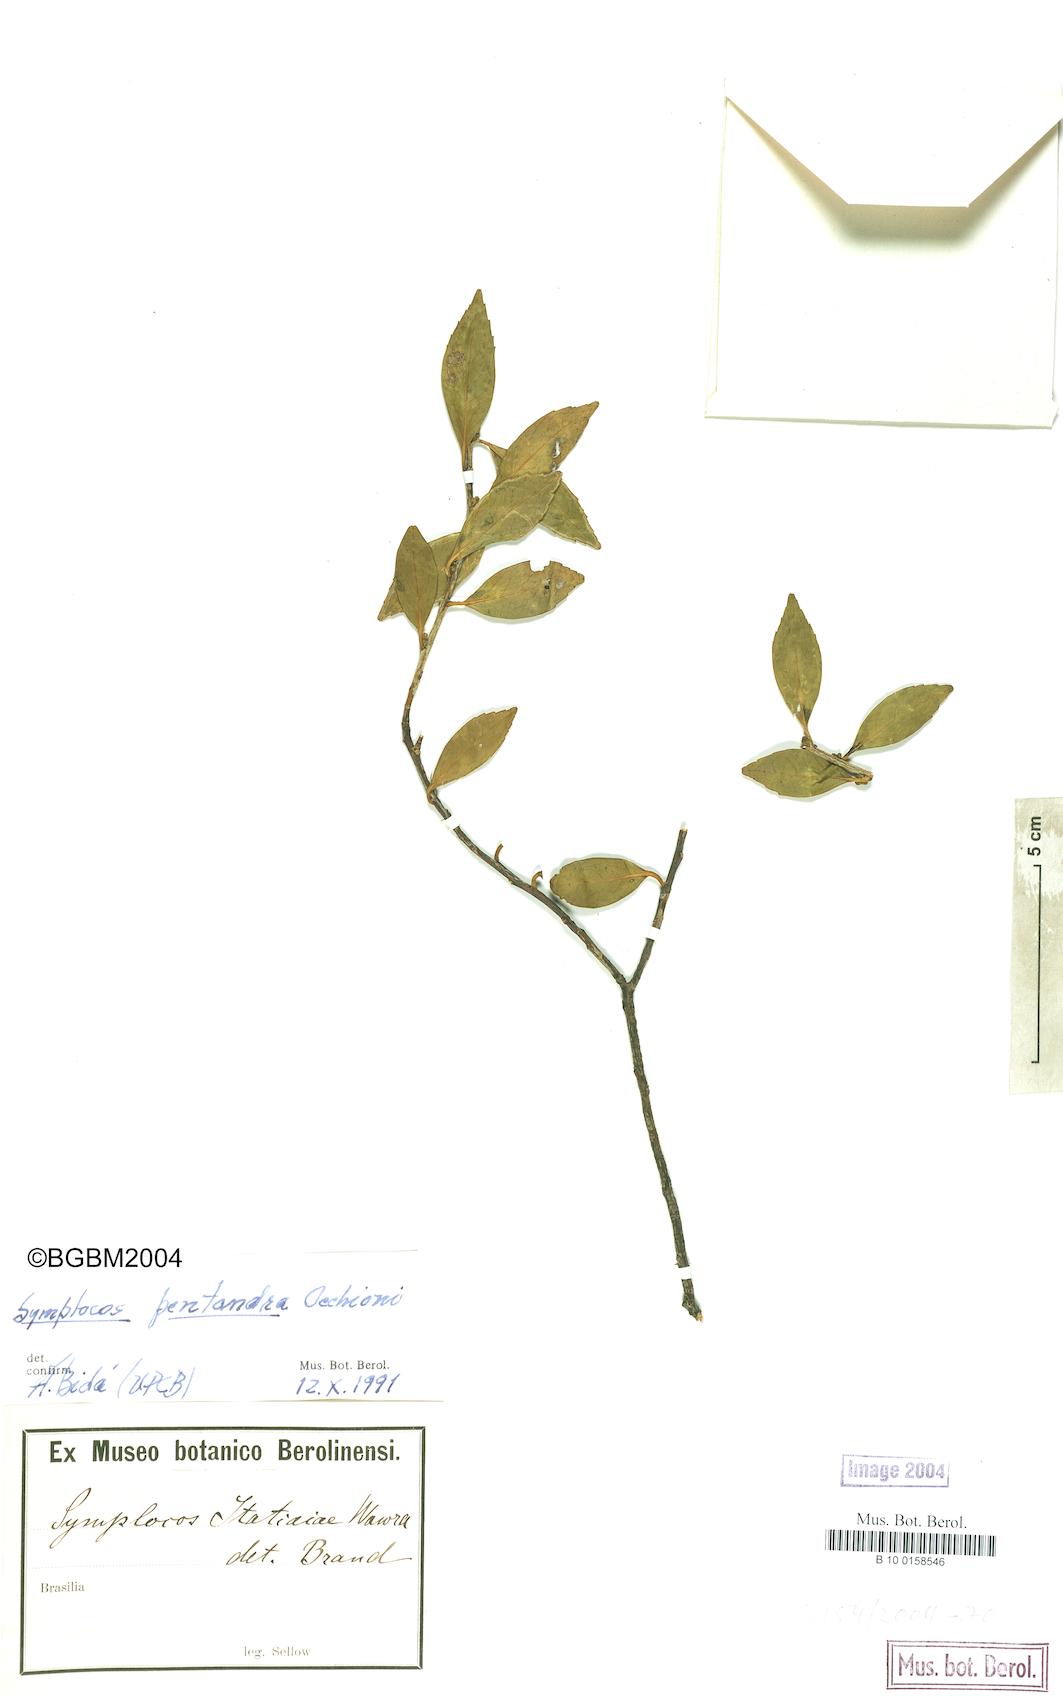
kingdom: Plantae
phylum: Tracheophyta
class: Magnoliopsida
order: Ericales
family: Symplocaceae
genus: Symplocos
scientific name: Symplocos itatiaiae
